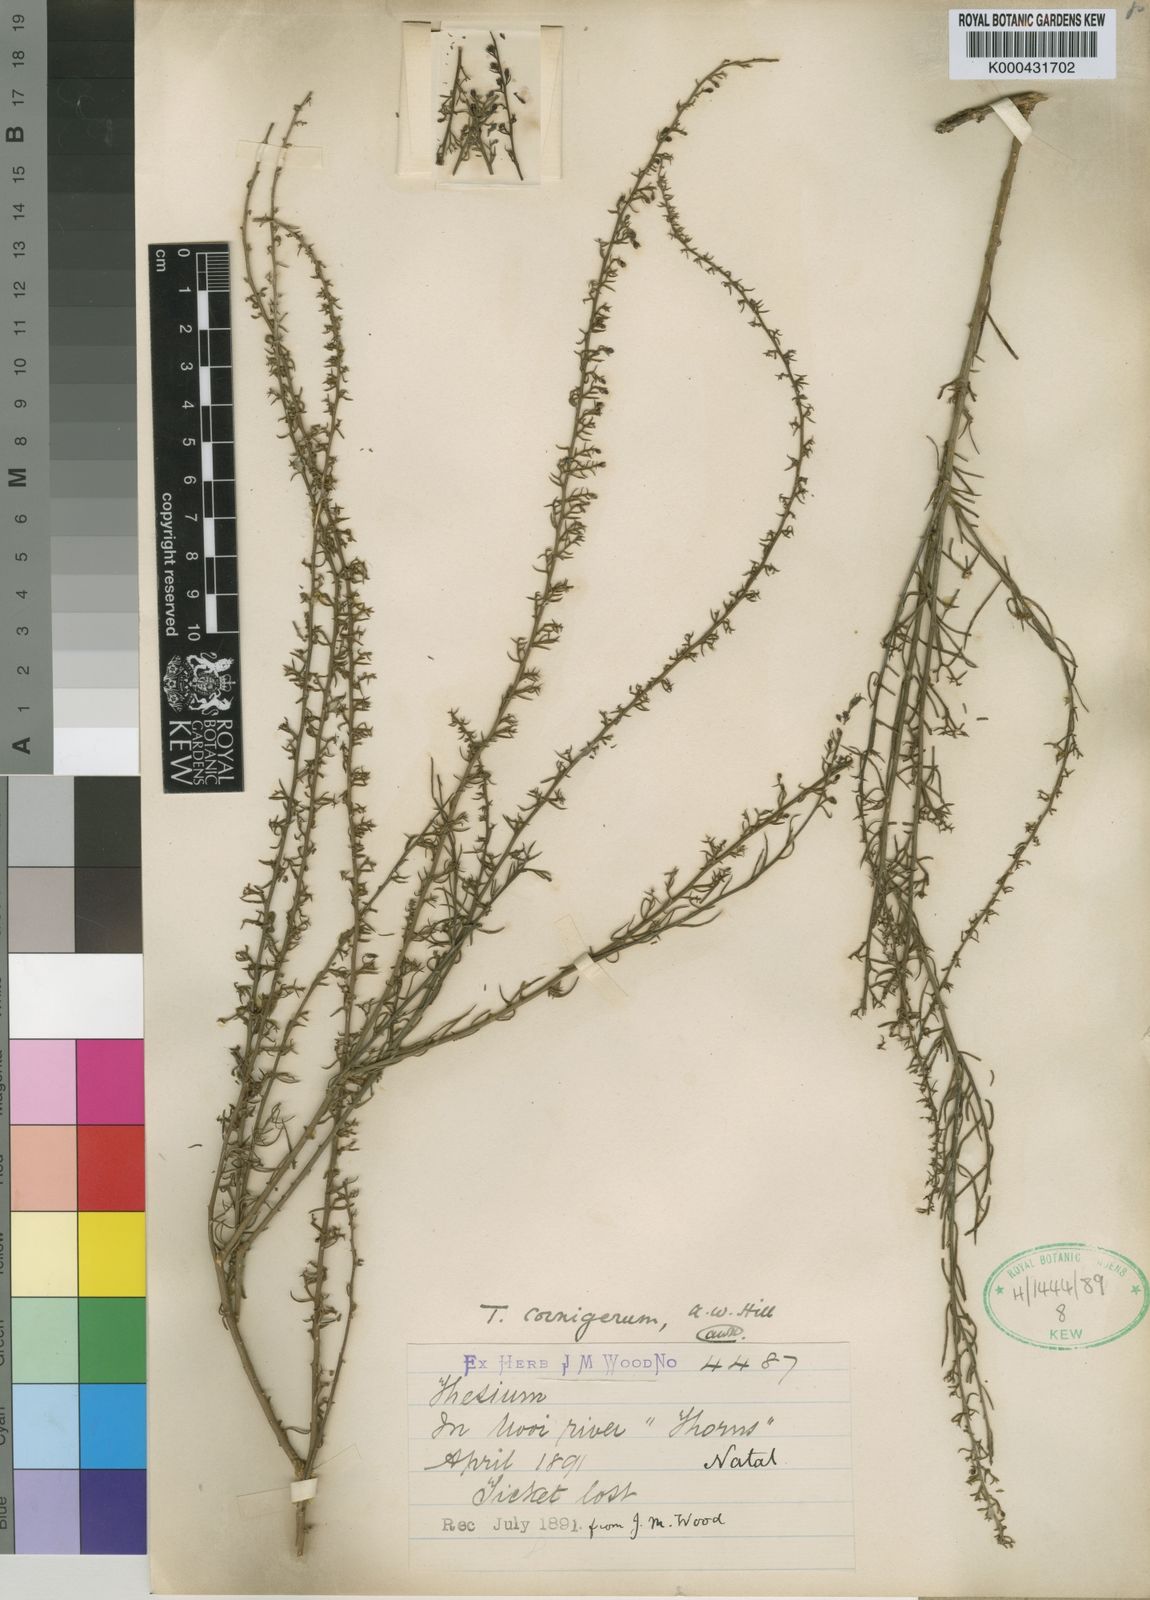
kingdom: Plantae
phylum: Tracheophyta
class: Magnoliopsida
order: Santalales
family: Thesiaceae
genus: Thesium
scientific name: Thesium cornigerum
